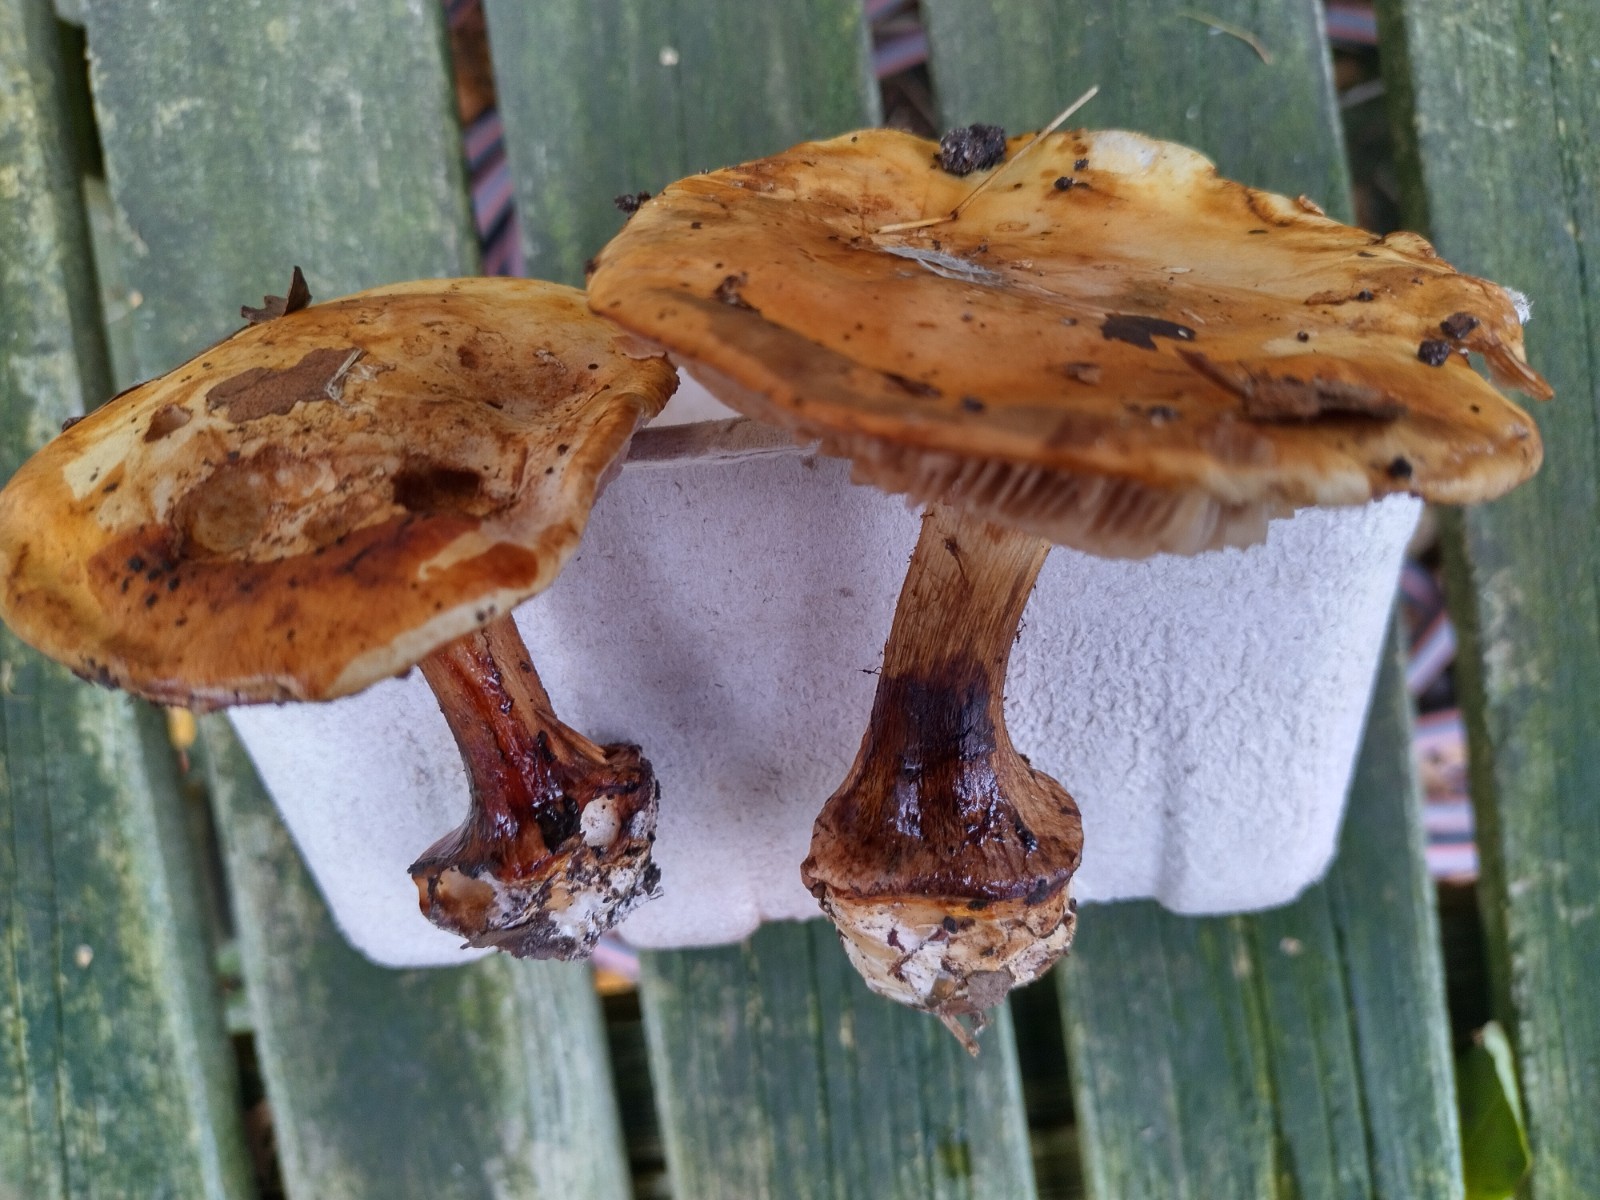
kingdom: Fungi
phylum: Basidiomycota
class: Agaricomycetes
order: Agaricales
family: Cortinariaceae
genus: Calonarius
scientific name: Calonarius lilacinovelatus
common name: violetknoldet slørhat
